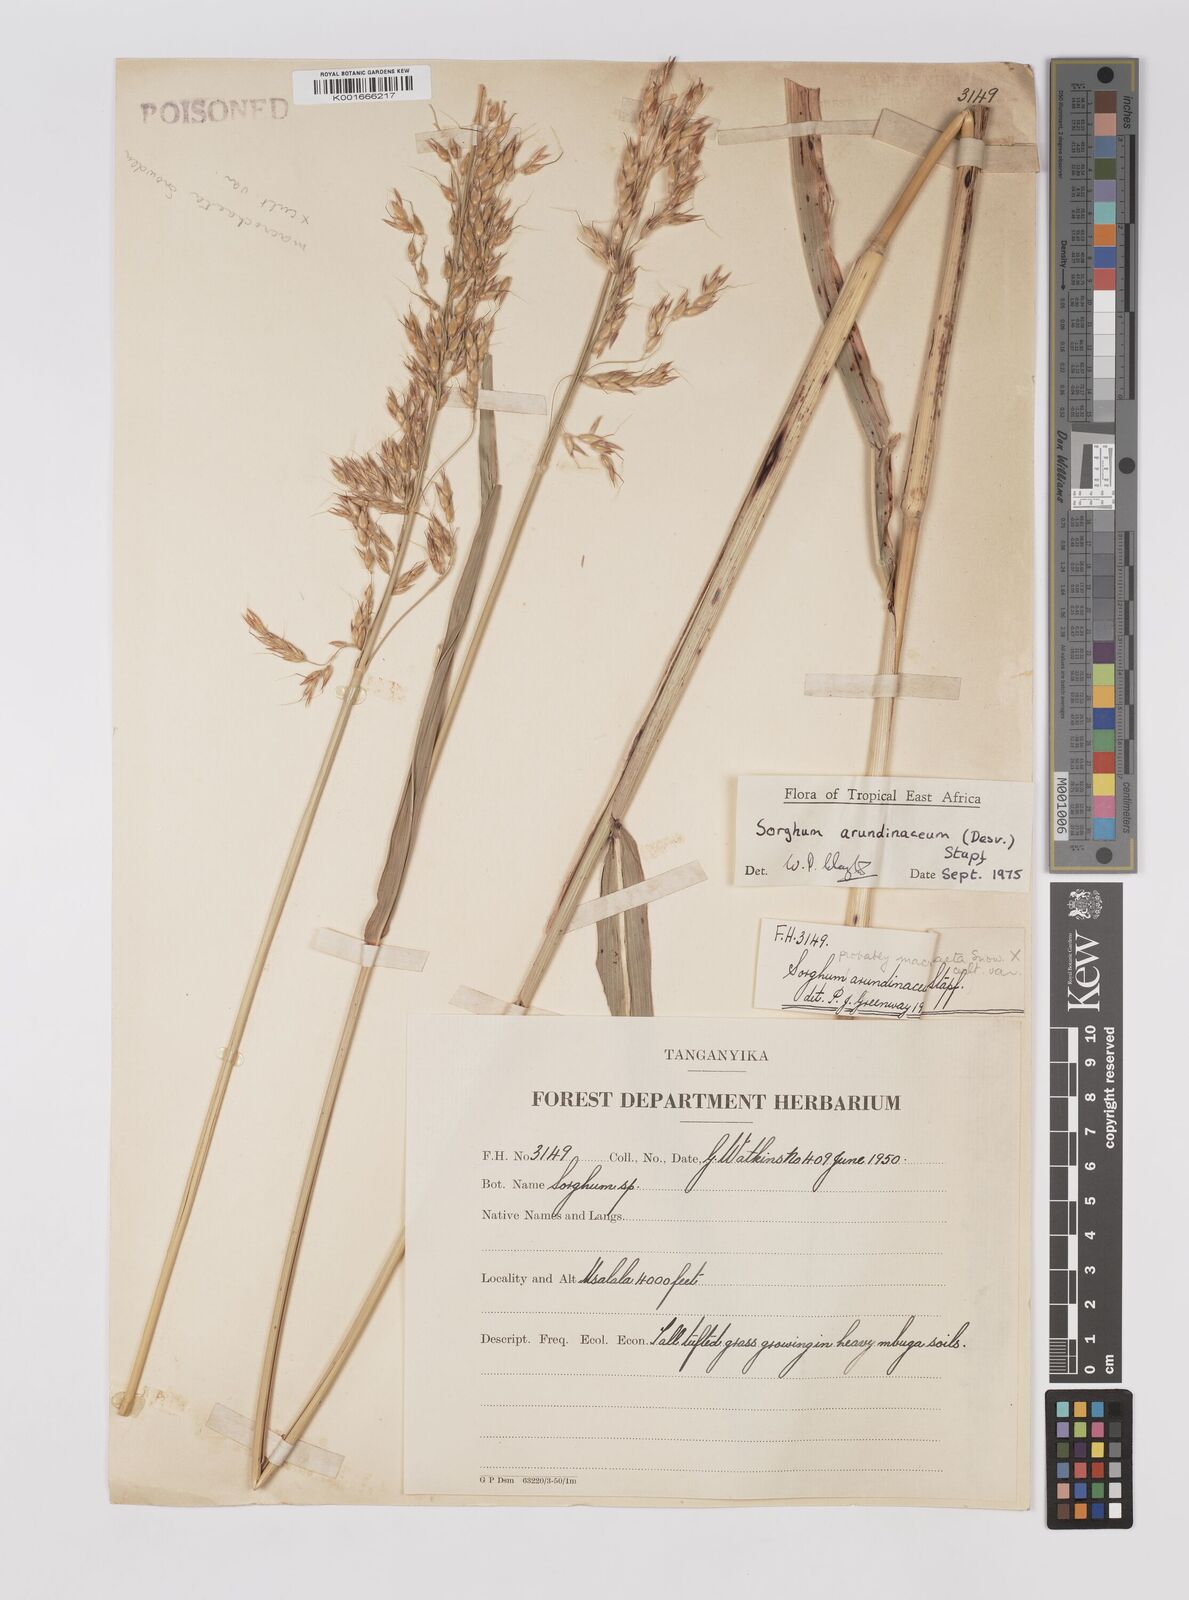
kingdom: Plantae
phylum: Tracheophyta
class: Liliopsida
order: Poales
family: Poaceae
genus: Sorghum
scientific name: Sorghum arundinaceum
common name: Sorghum
